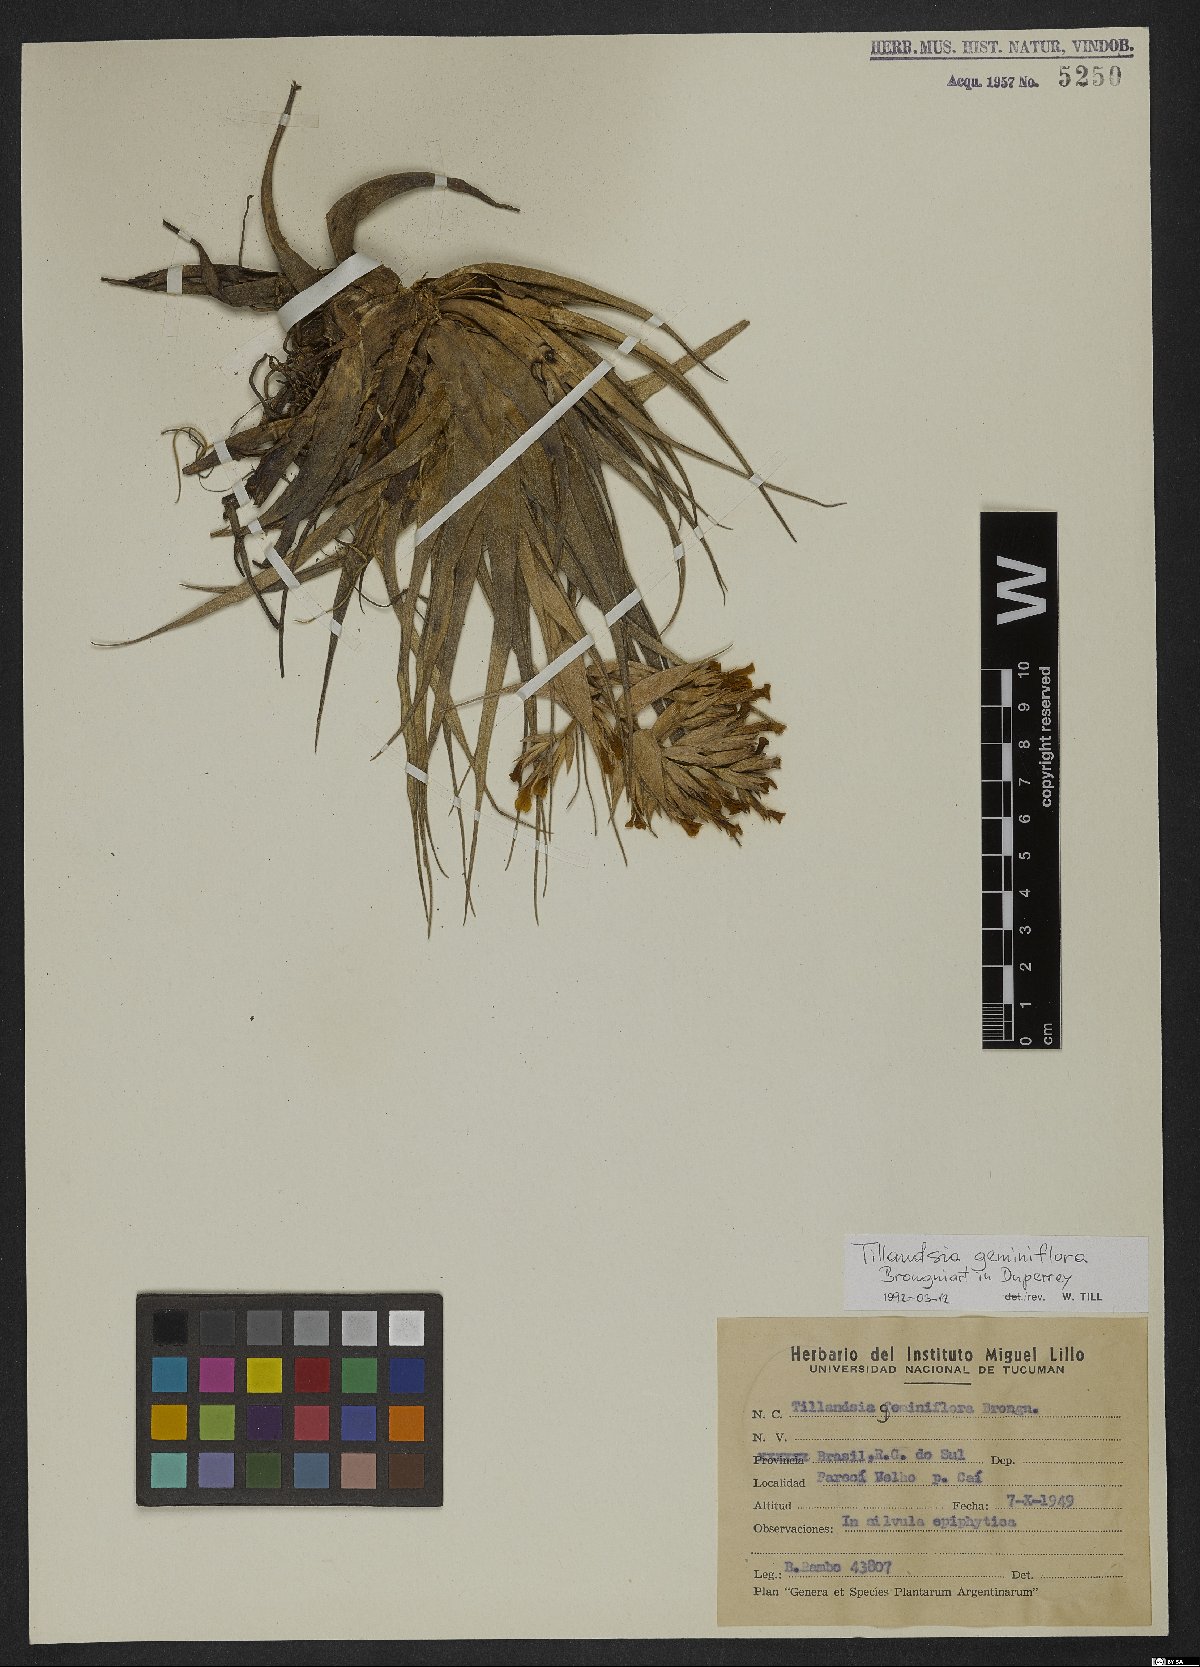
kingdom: Plantae
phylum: Tracheophyta
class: Liliopsida
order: Poales
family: Bromeliaceae
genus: Tillandsia
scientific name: Tillandsia geminiflora
